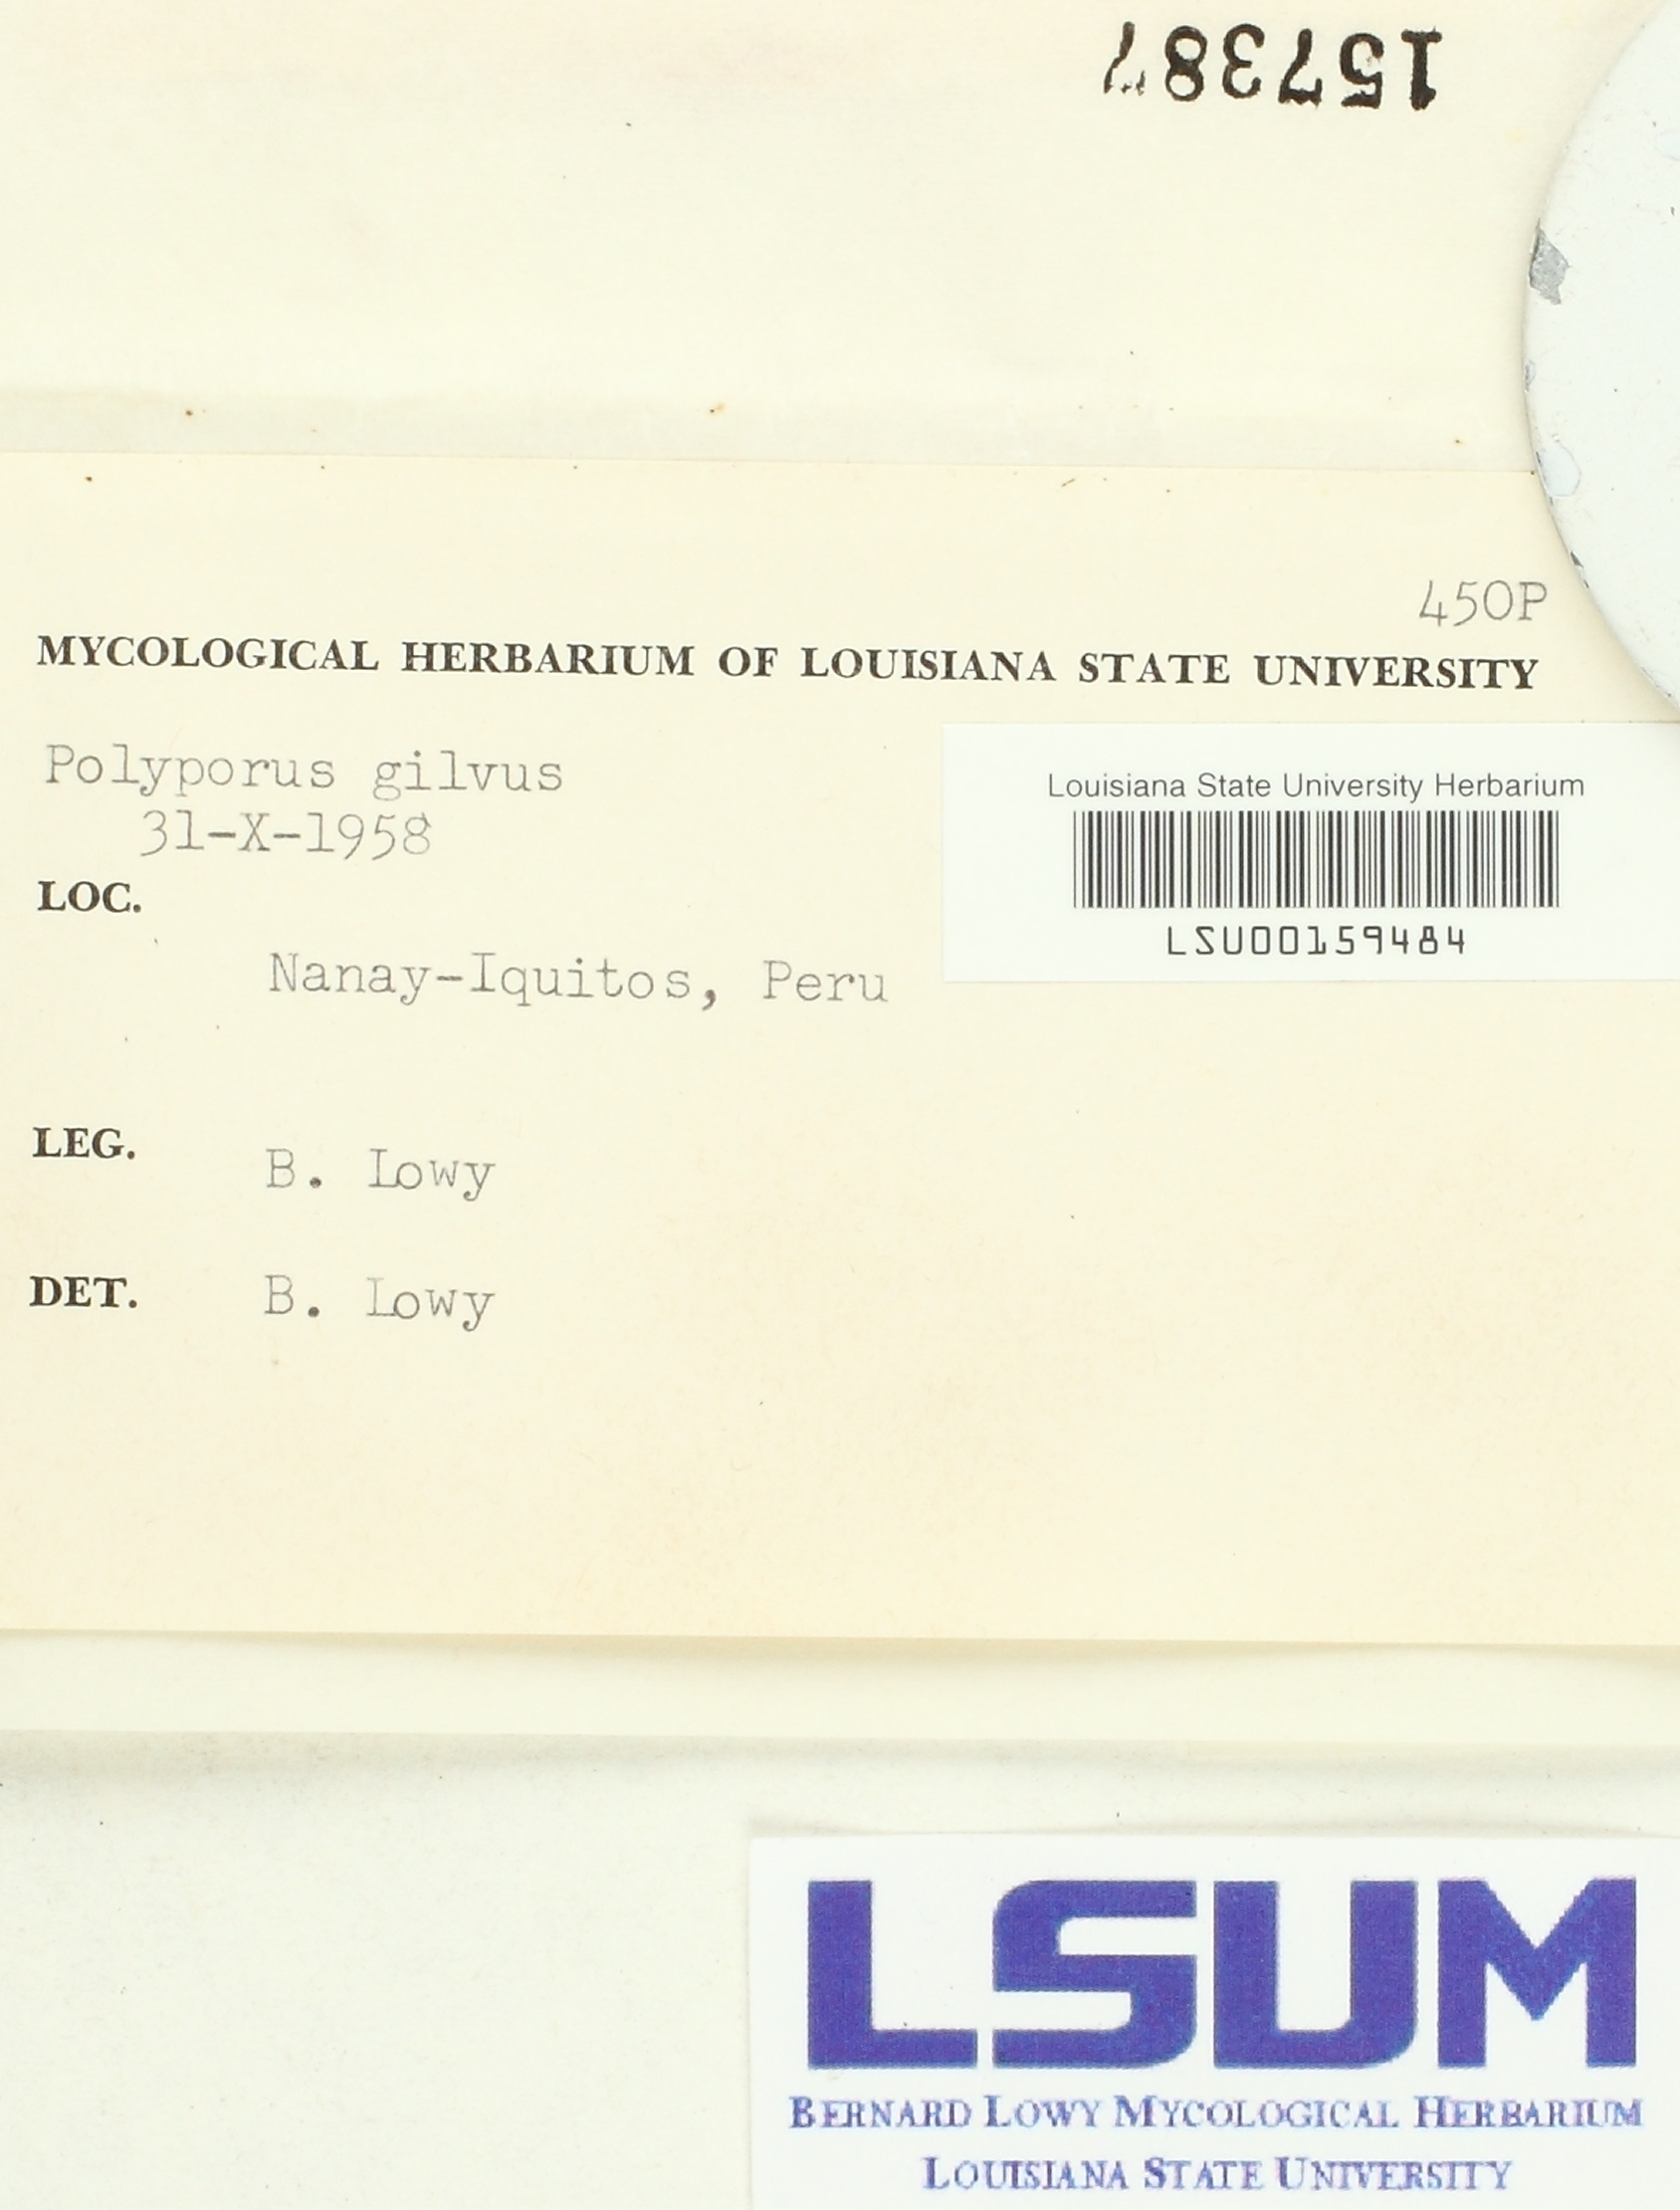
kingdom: Fungi
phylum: Basidiomycota
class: Agaricomycetes
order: Hymenochaetales
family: Hymenochaetaceae
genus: Phellinus
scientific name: Phellinus gilvus
